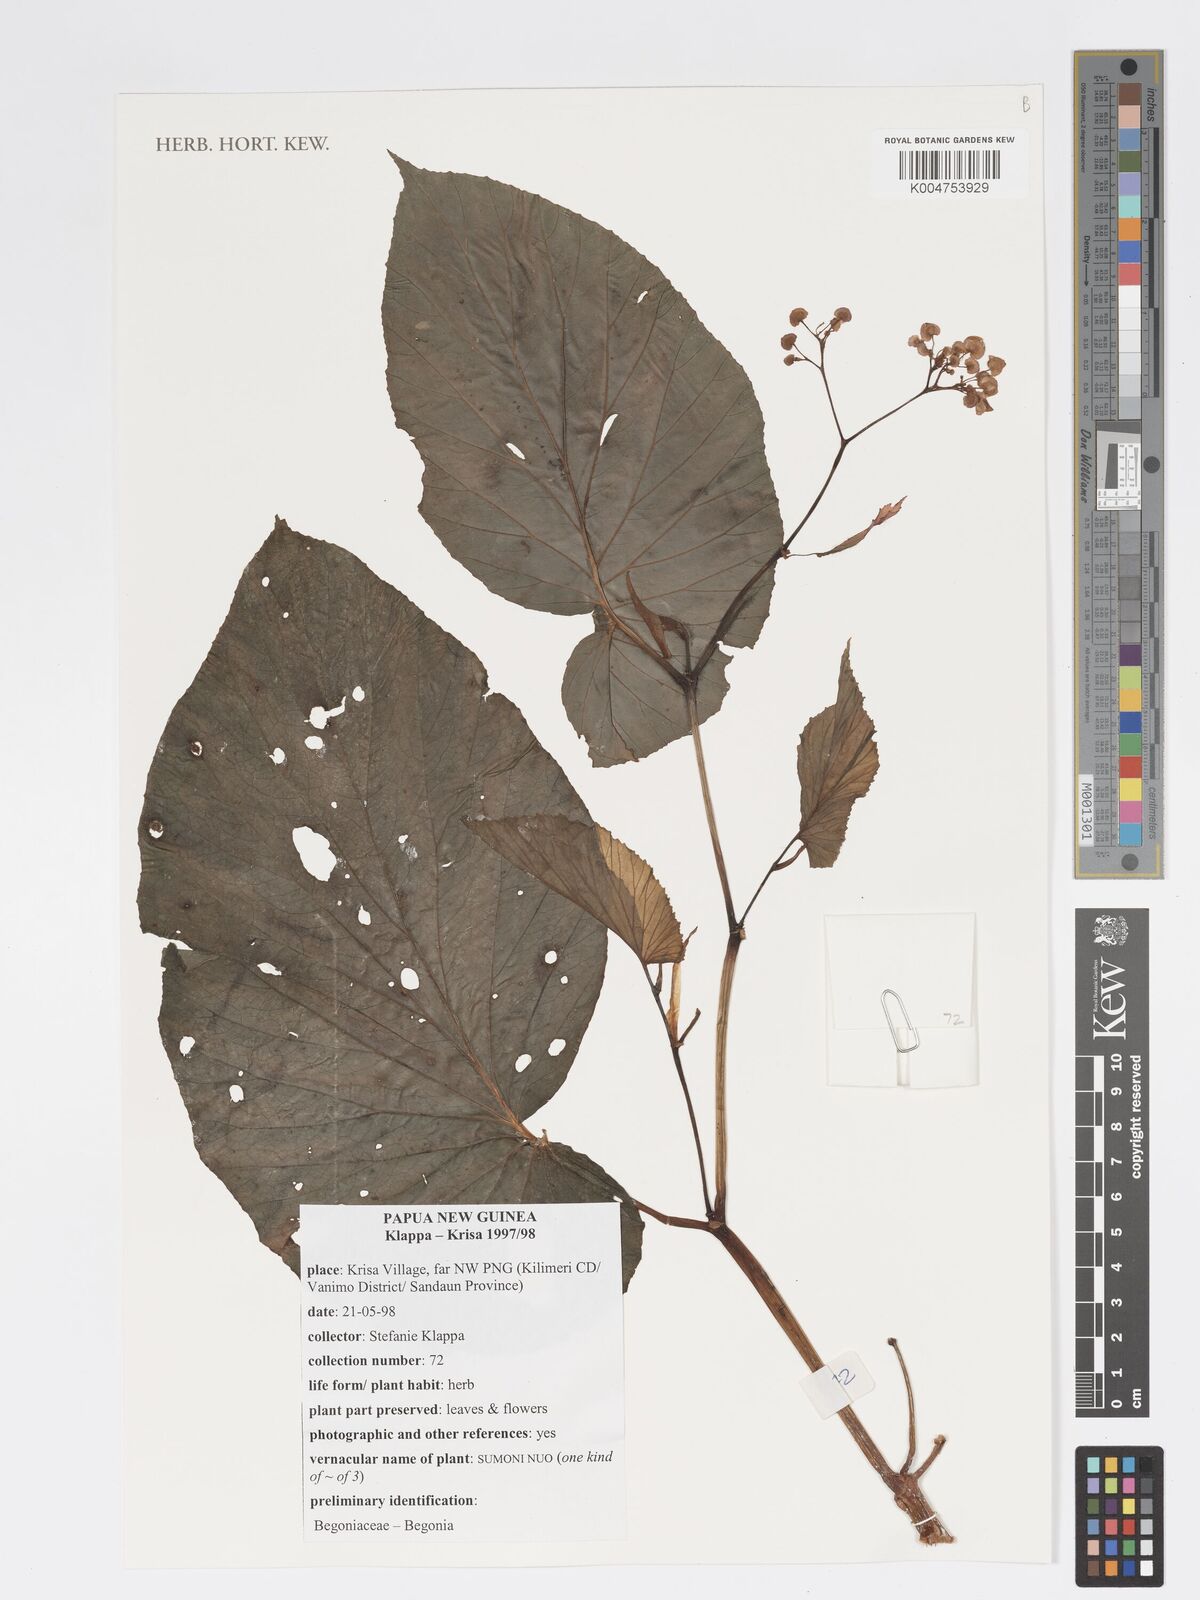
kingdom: Plantae
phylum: Tracheophyta
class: Magnoliopsida
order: Cucurbitales
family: Begoniaceae
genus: Begonia
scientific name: Begonia wollastonii
